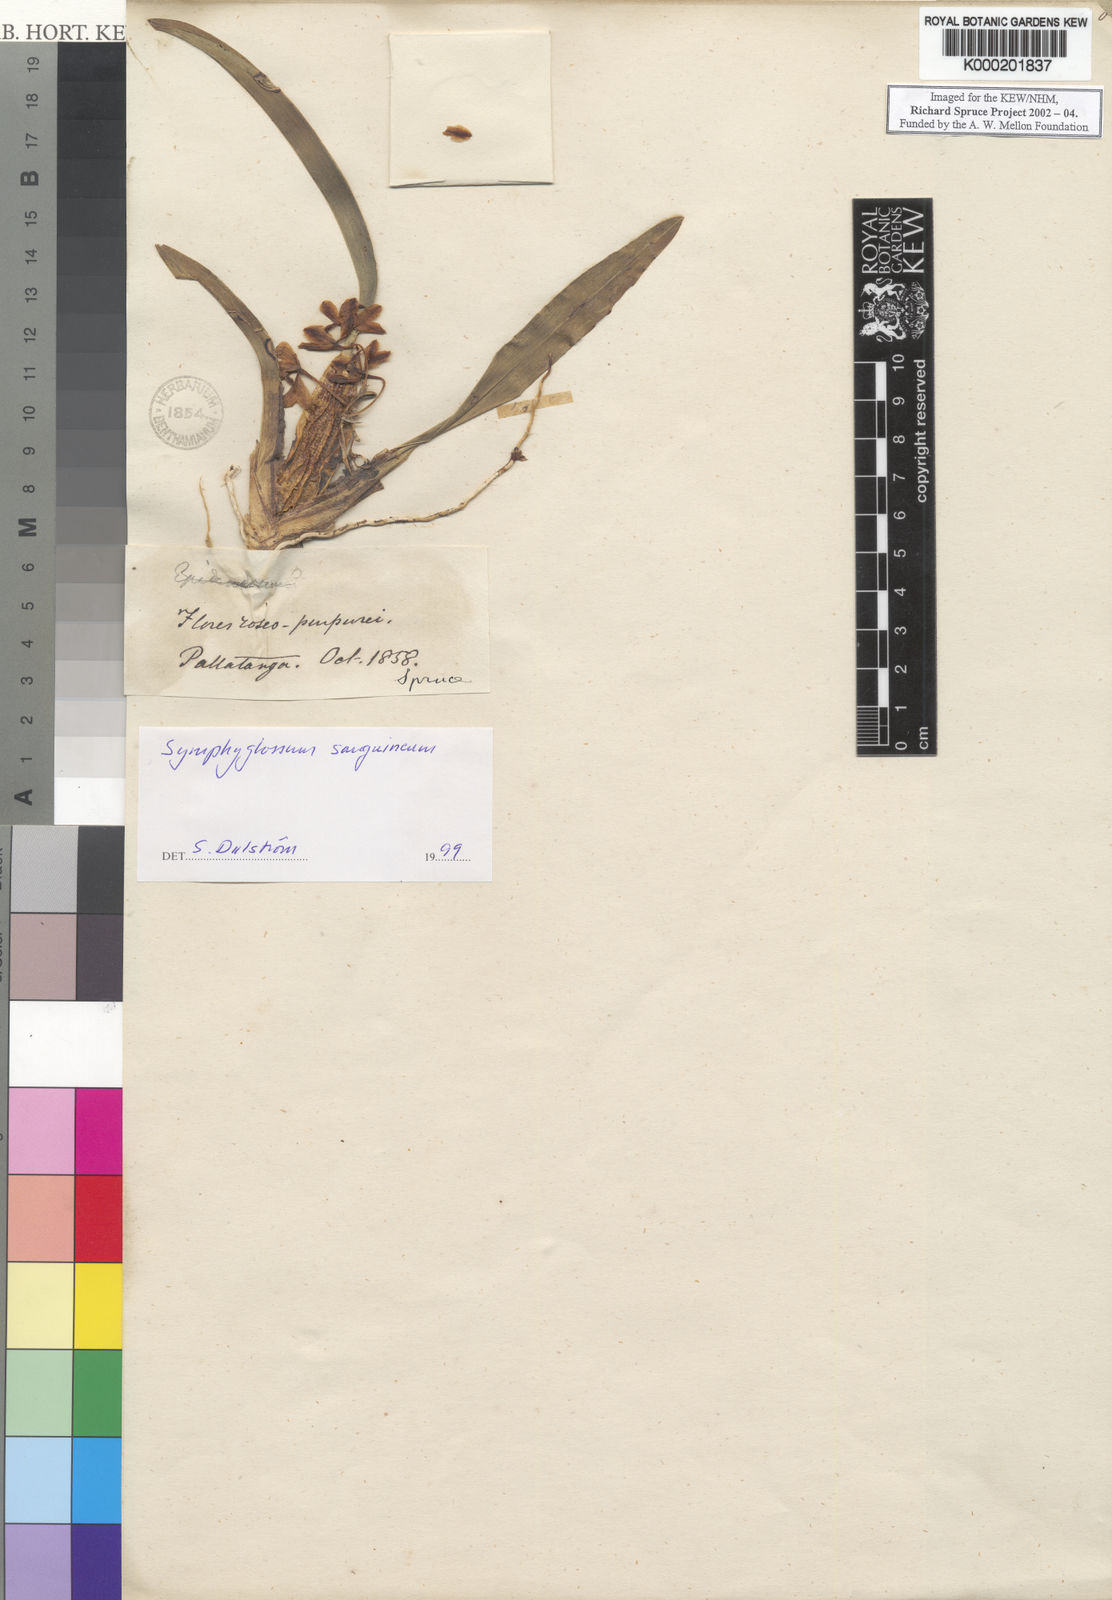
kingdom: Plantae
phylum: Tracheophyta
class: Liliopsida
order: Asparagales
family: Orchidaceae
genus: Oncidium
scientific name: Oncidium strictum
